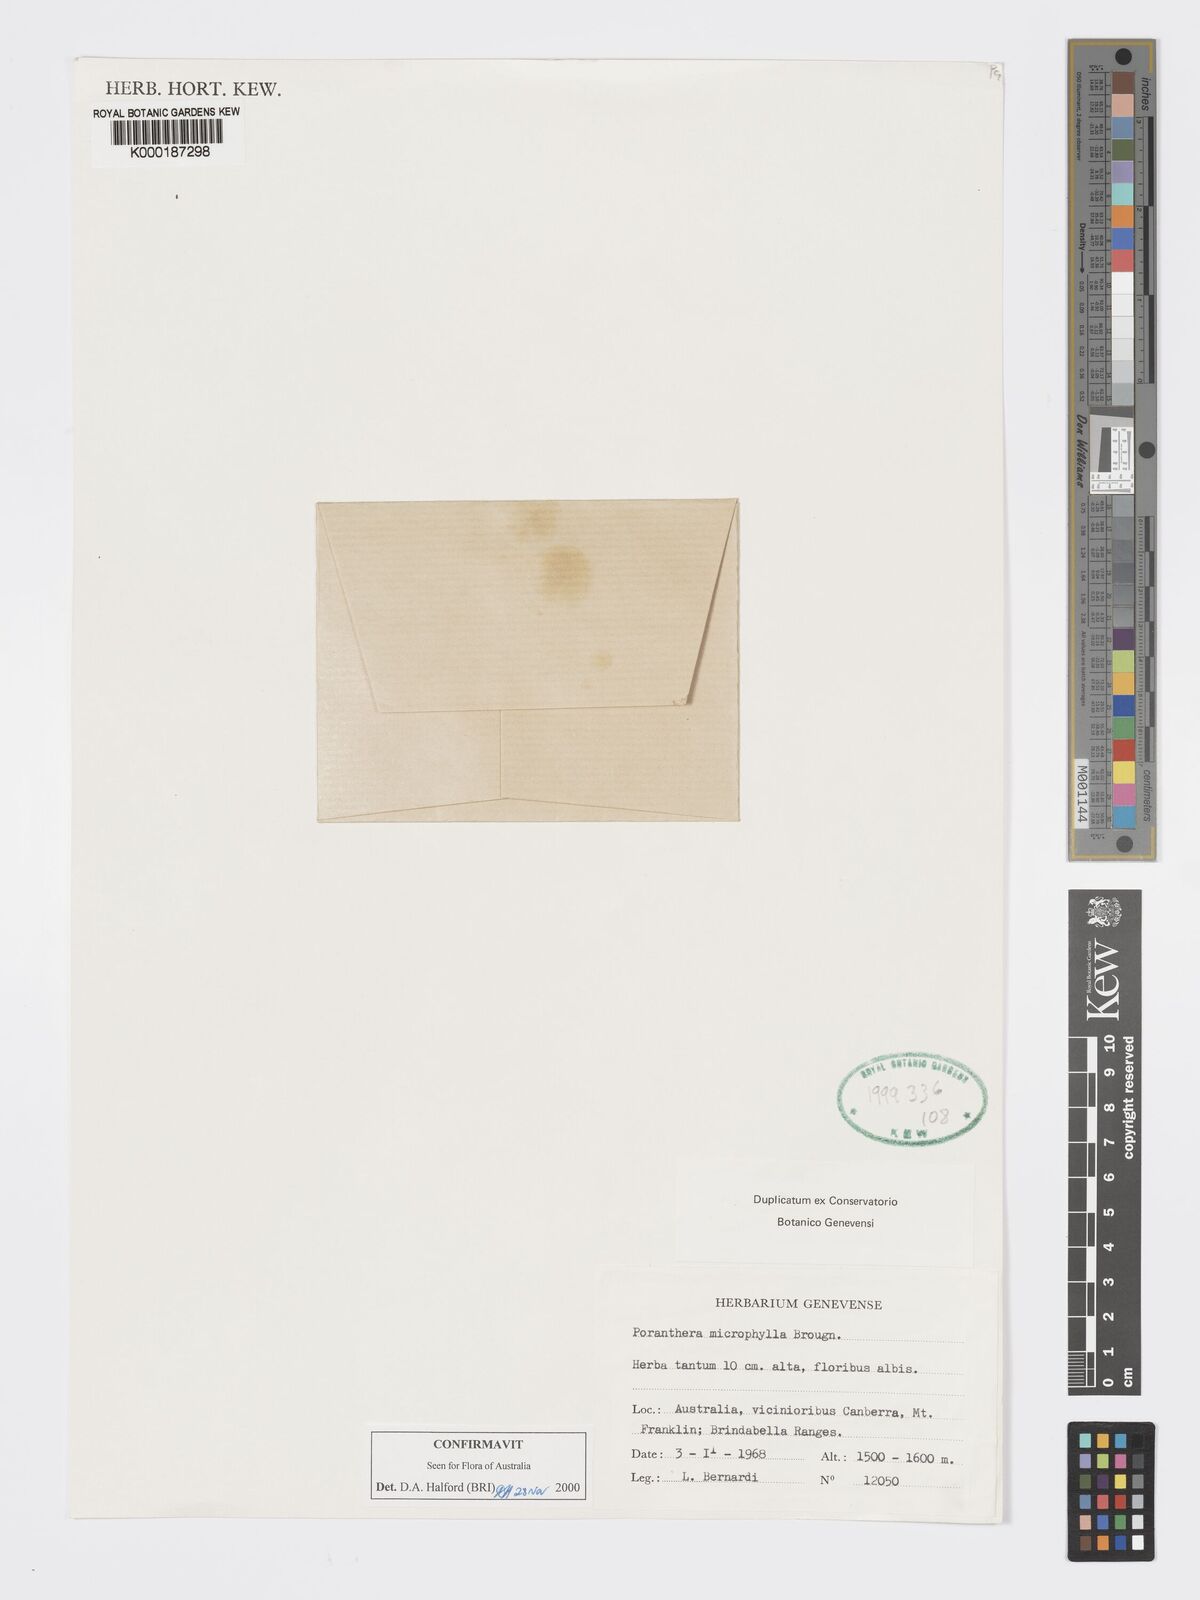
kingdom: Plantae
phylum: Tracheophyta
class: Magnoliopsida
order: Malpighiales
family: Phyllanthaceae
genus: Poranthera
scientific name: Poranthera microphylla
